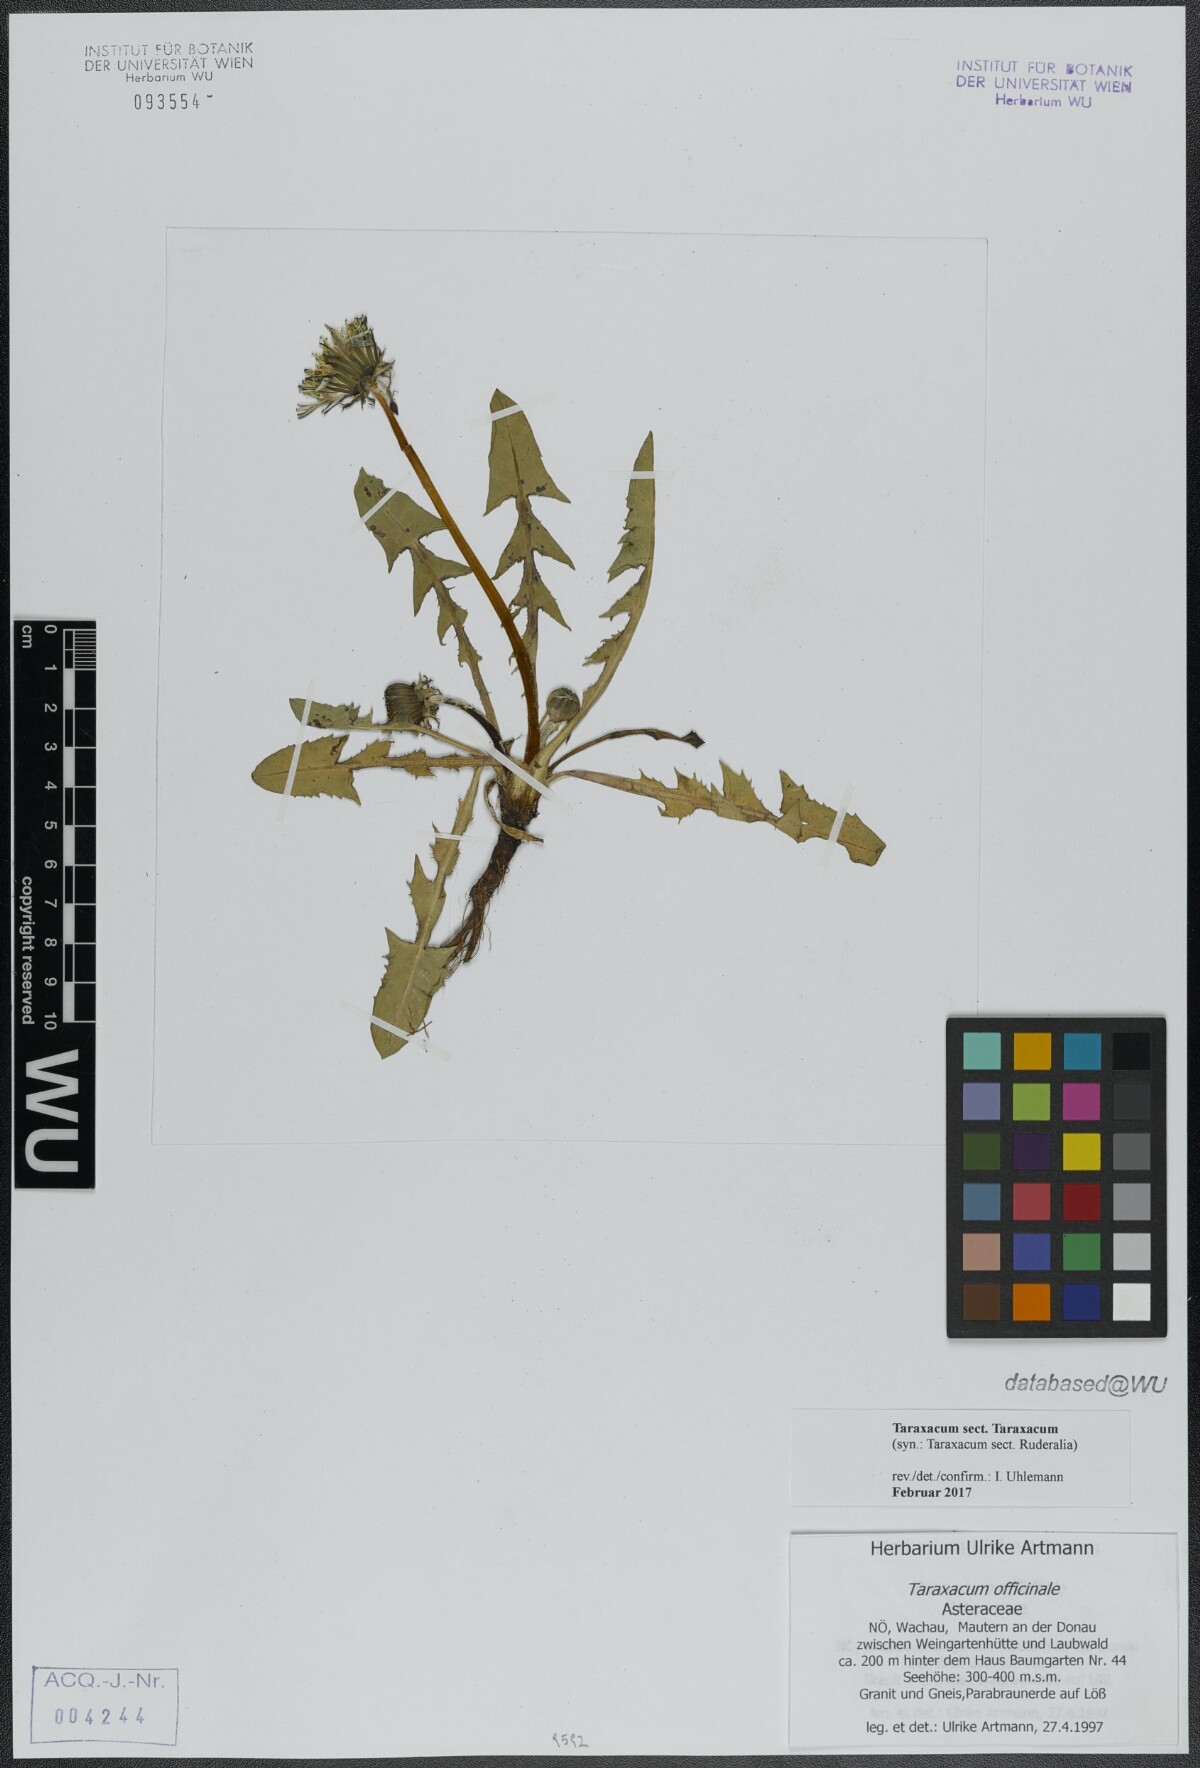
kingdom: Plantae
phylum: Tracheophyta
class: Magnoliopsida
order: Asterales
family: Asteraceae
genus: Taraxacum
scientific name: Taraxacum
